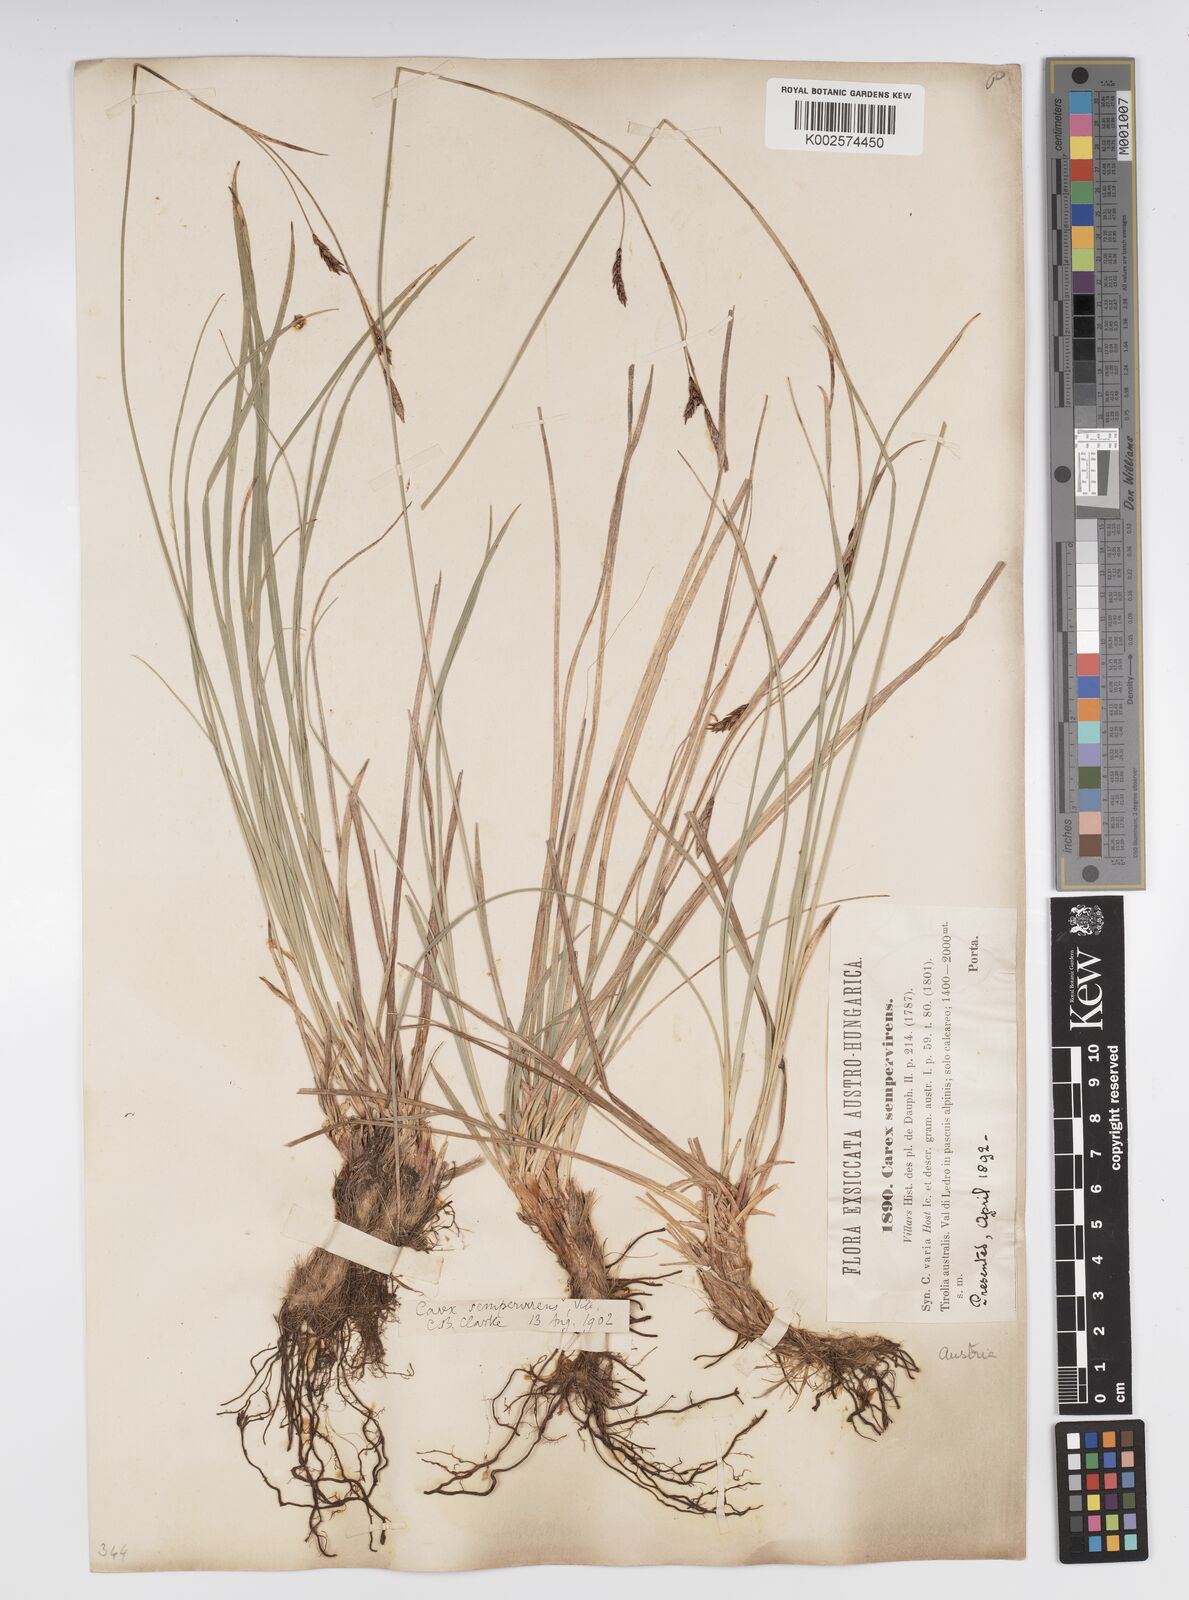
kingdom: Plantae
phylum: Tracheophyta
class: Liliopsida
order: Poales
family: Cyperaceae
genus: Carex
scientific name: Carex sempervirens
